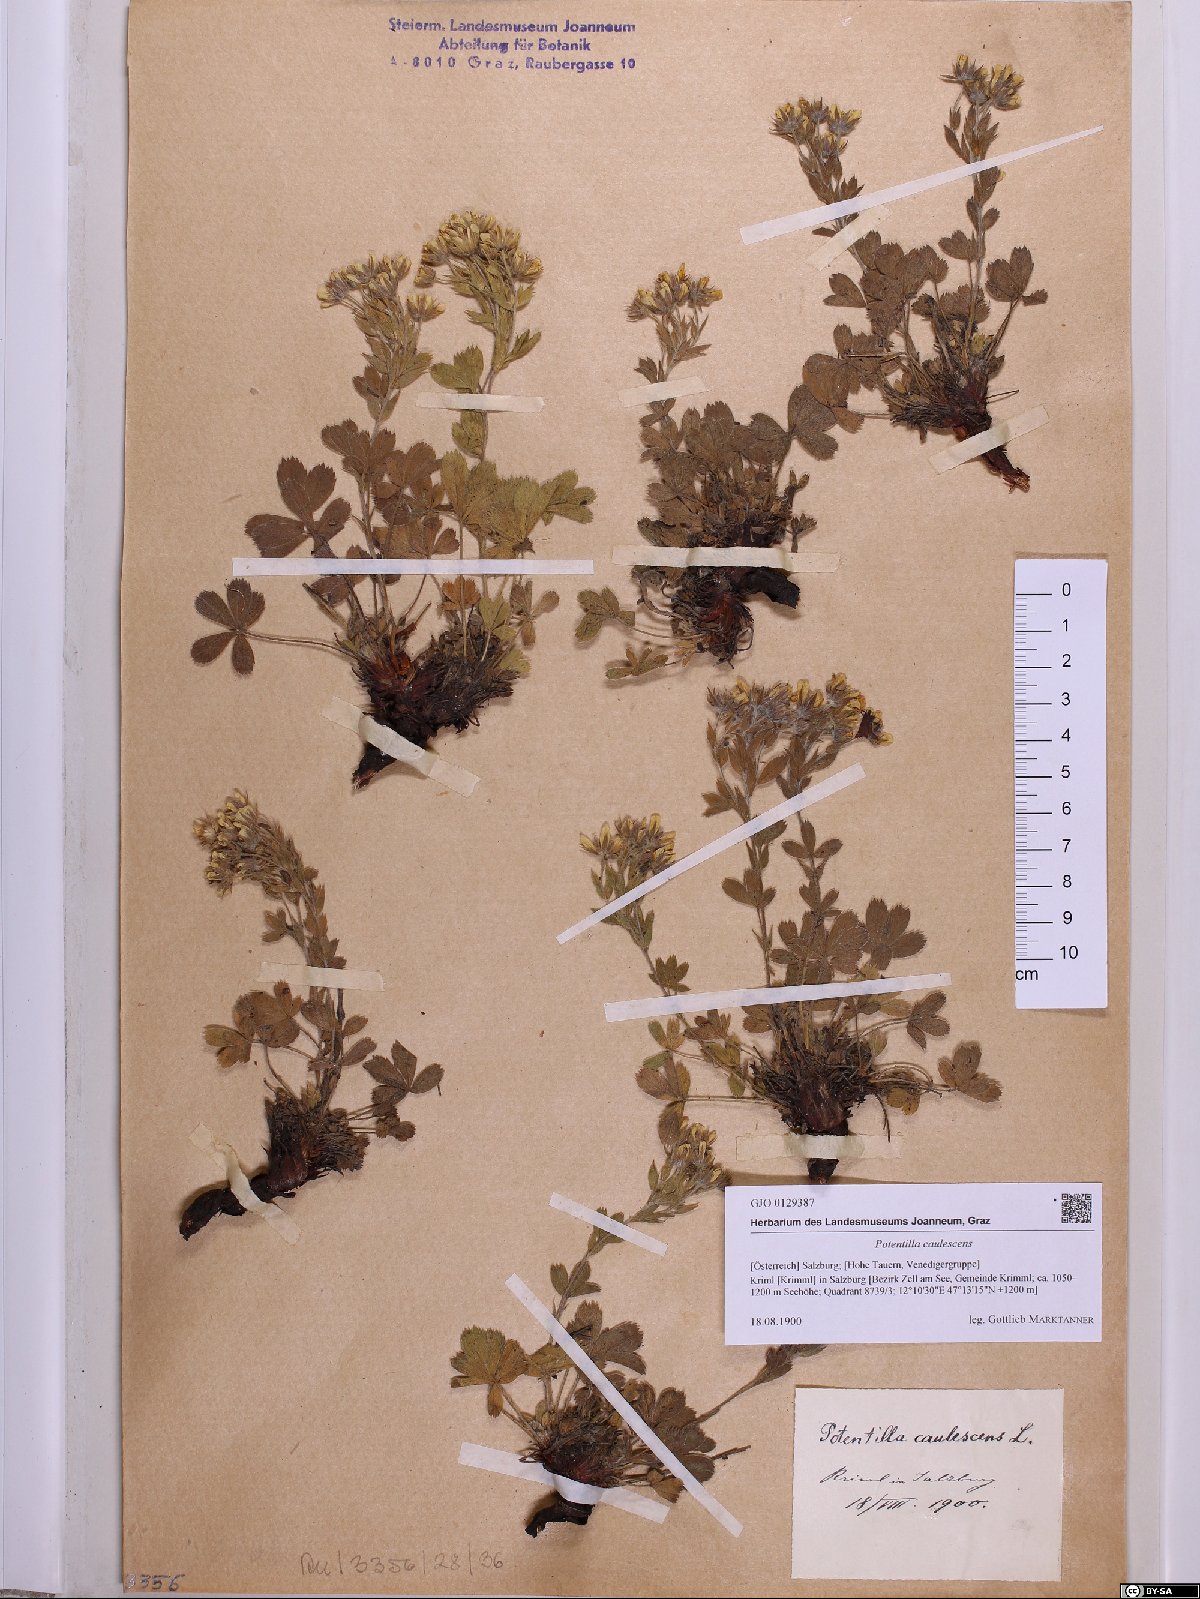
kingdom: Plantae
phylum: Tracheophyta
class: Magnoliopsida
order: Rosales
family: Rosaceae
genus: Potentilla
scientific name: Potentilla caulescens
